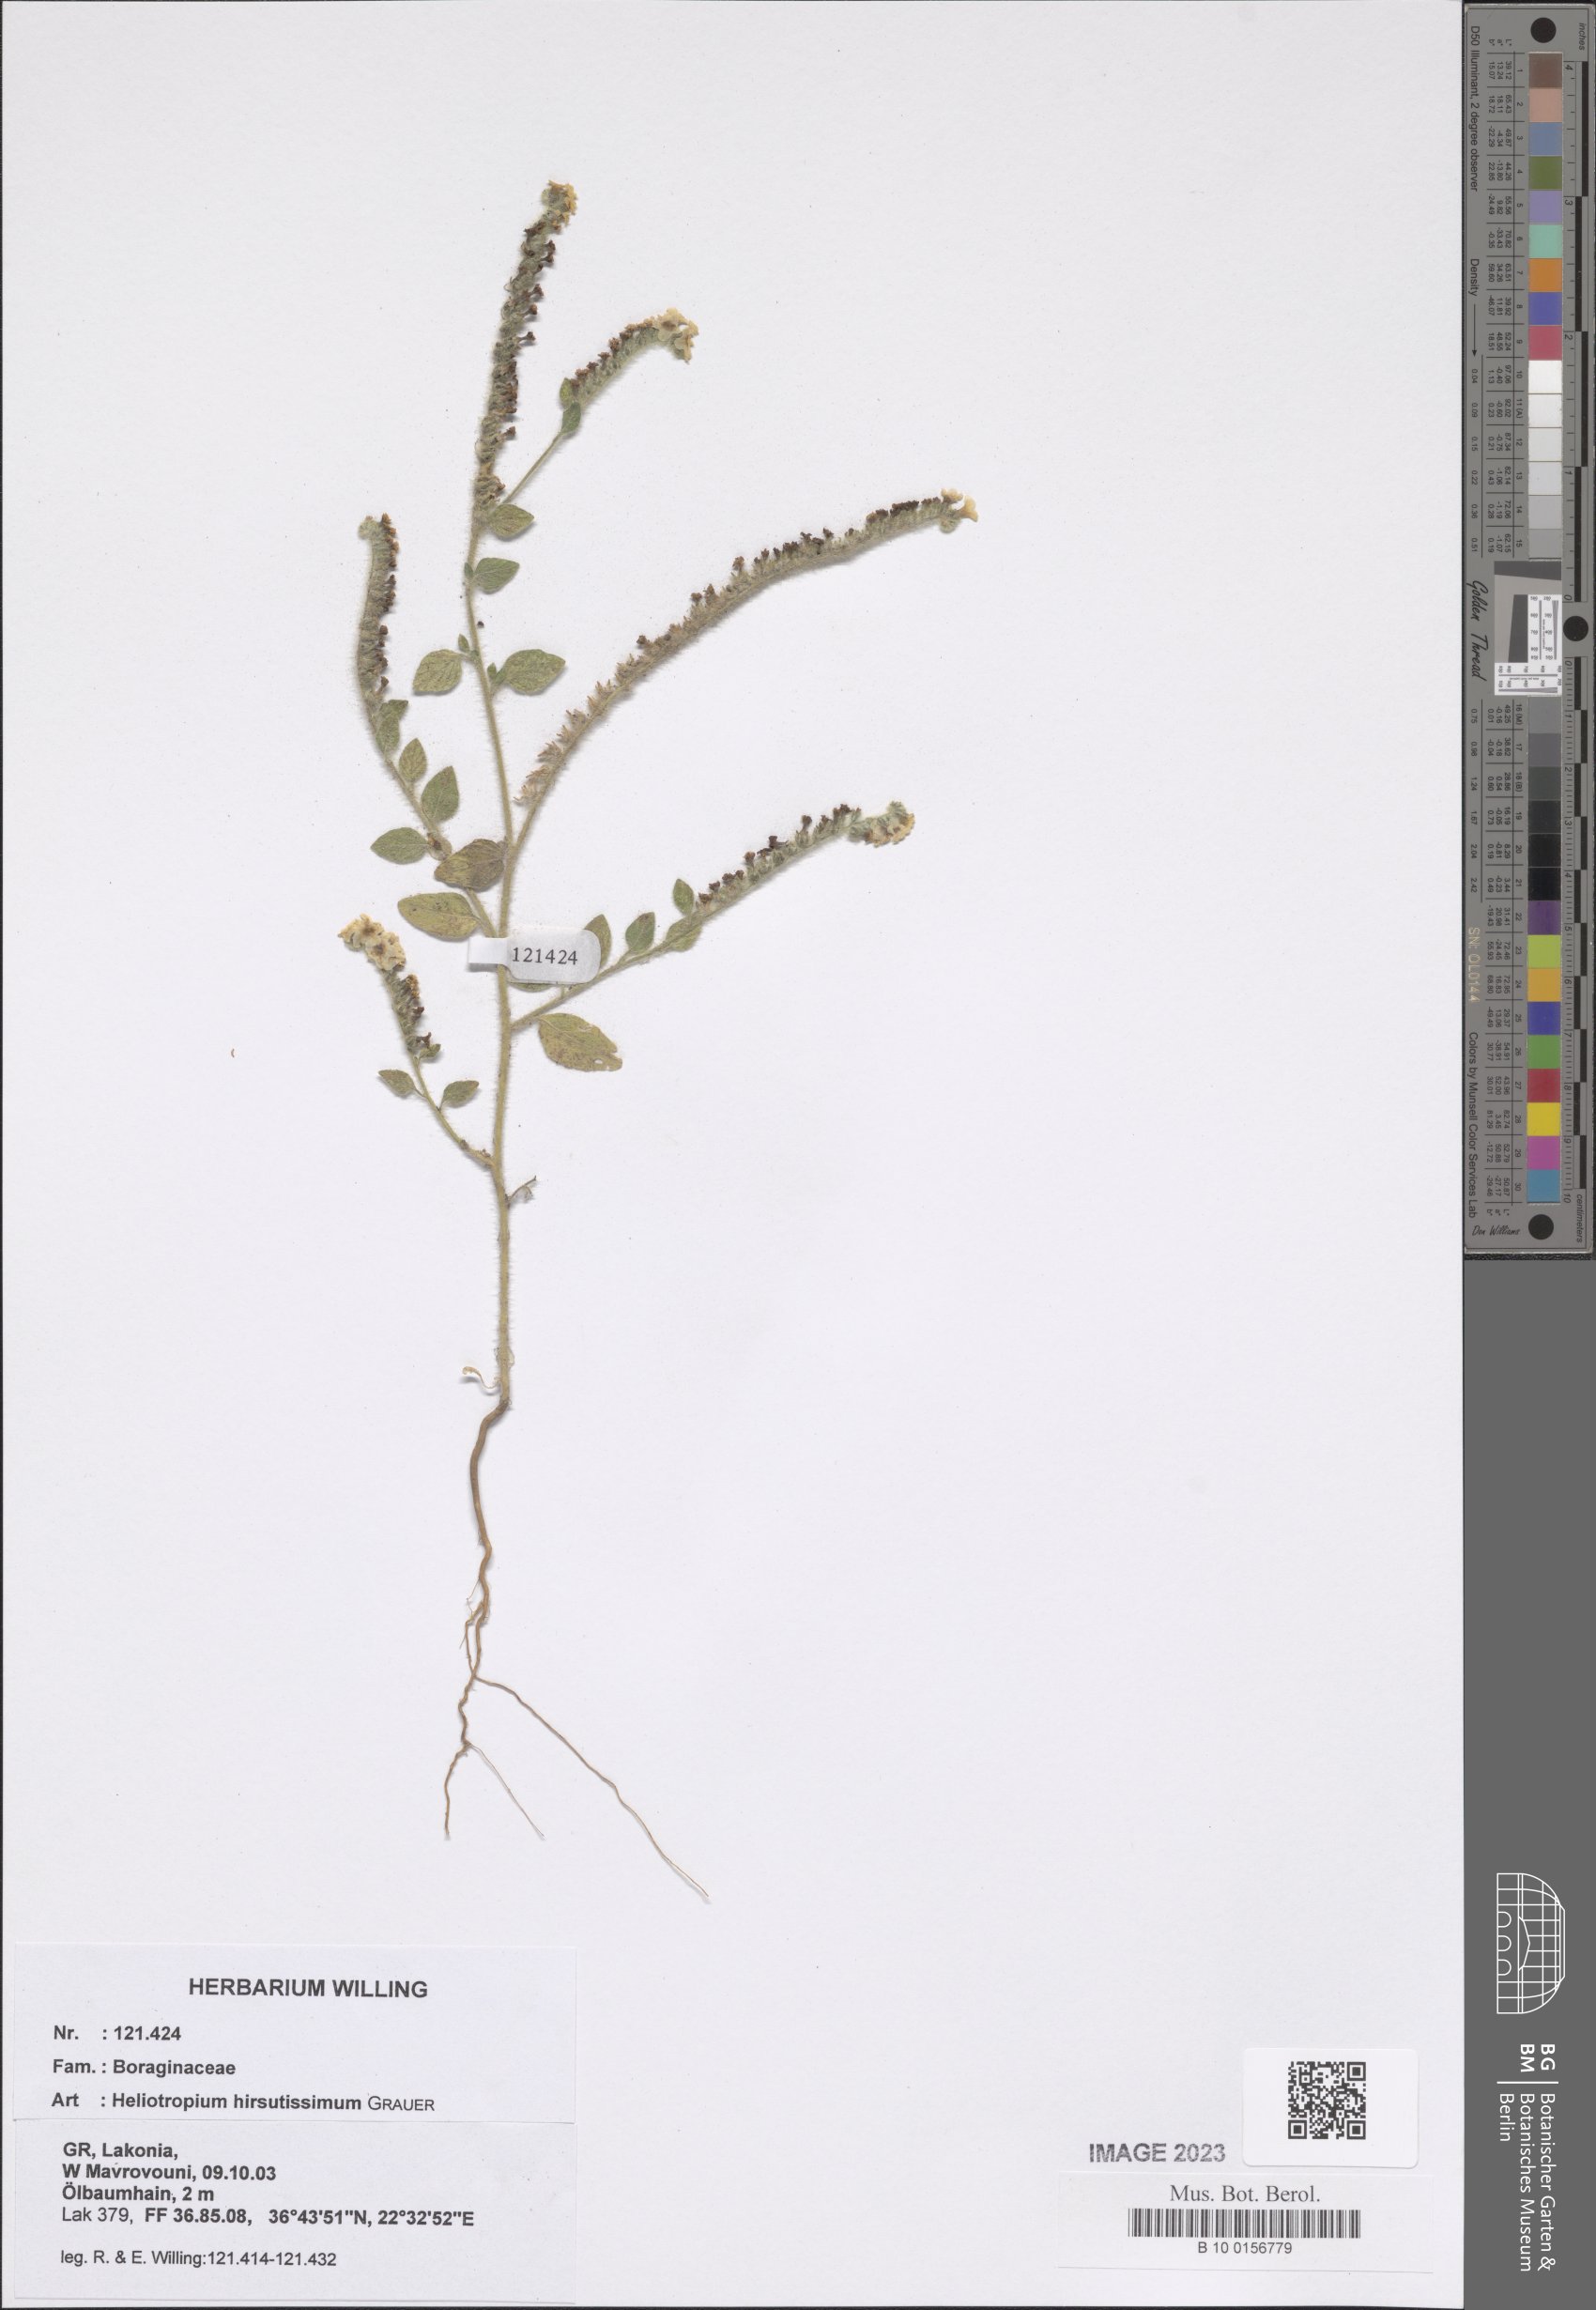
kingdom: Plantae
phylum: Tracheophyta
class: Magnoliopsida
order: Boraginales
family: Heliotropiaceae
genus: Heliotropium
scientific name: Heliotropium hirsutissimum
